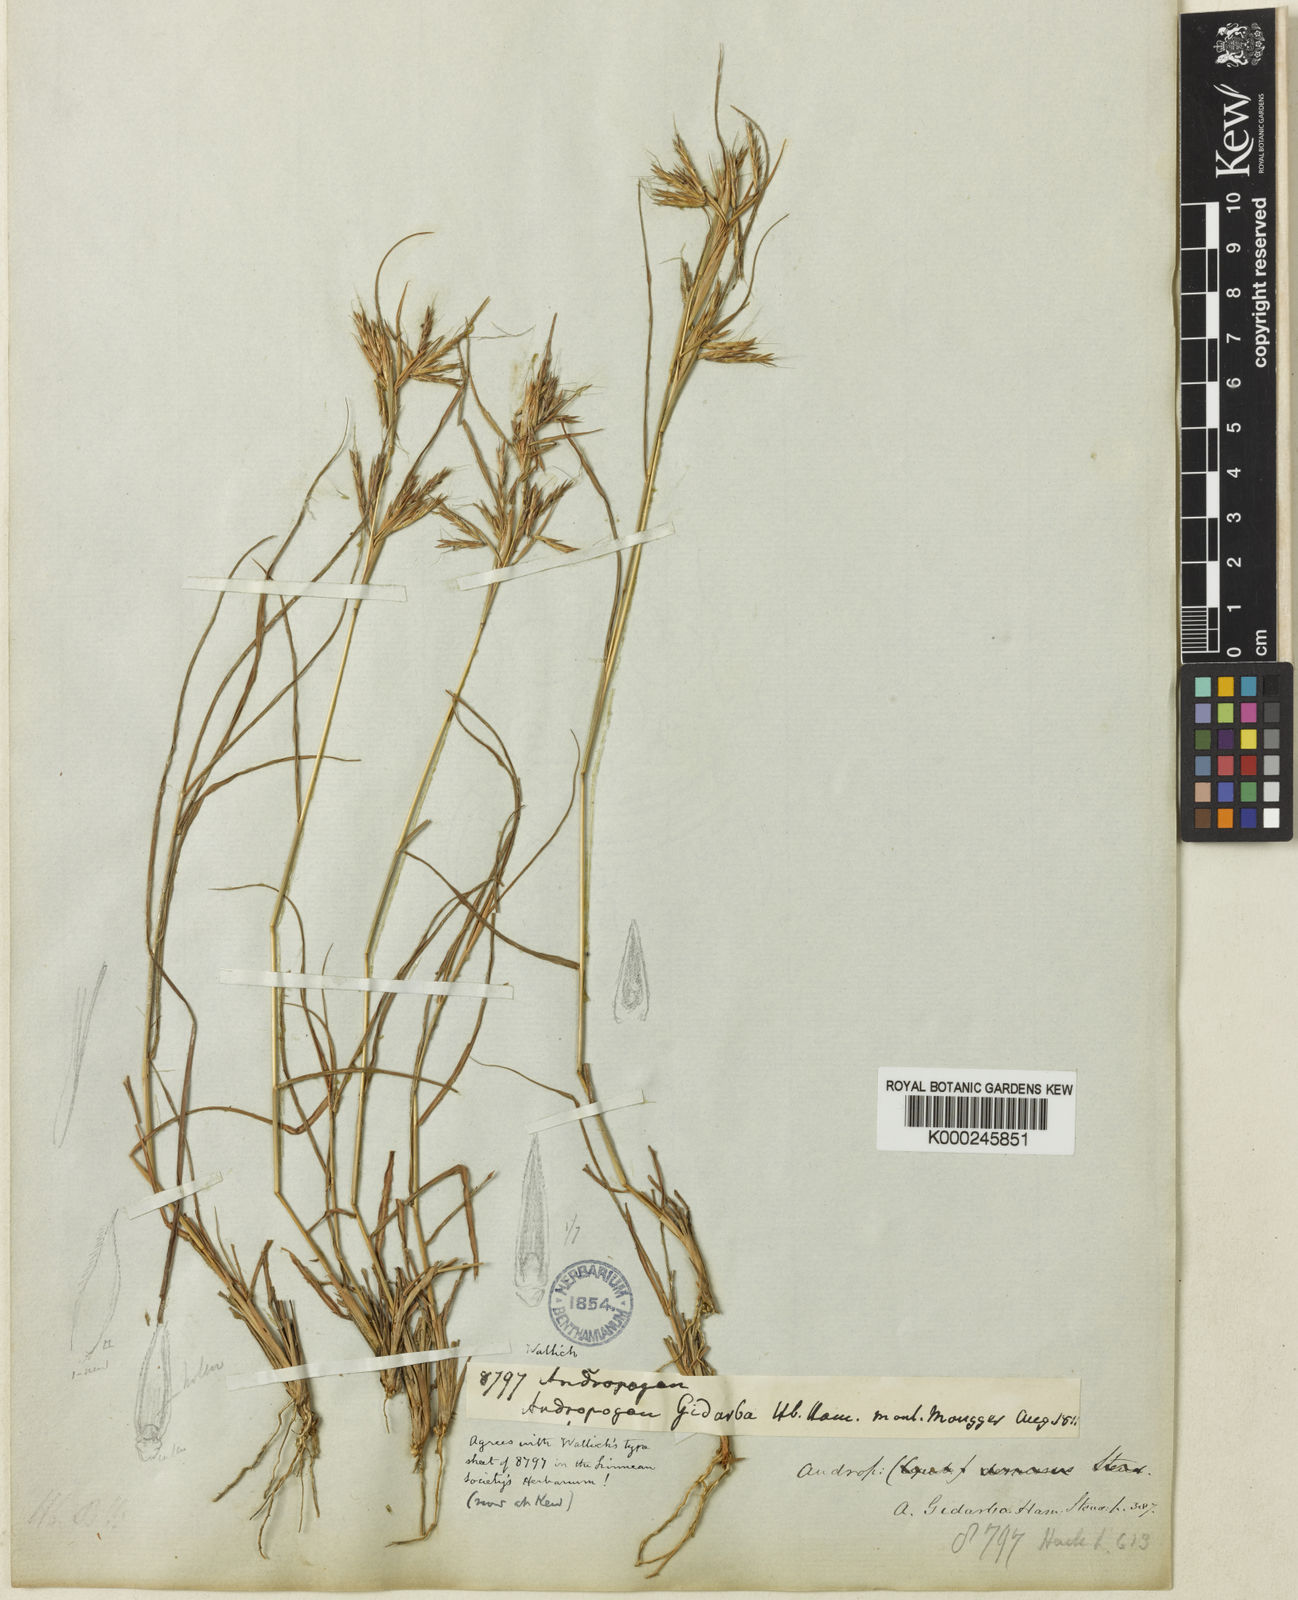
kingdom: Plantae
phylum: Tracheophyta
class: Liliopsida
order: Poales
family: Poaceae
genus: Cymbopogon
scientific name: Cymbopogon gidarba
